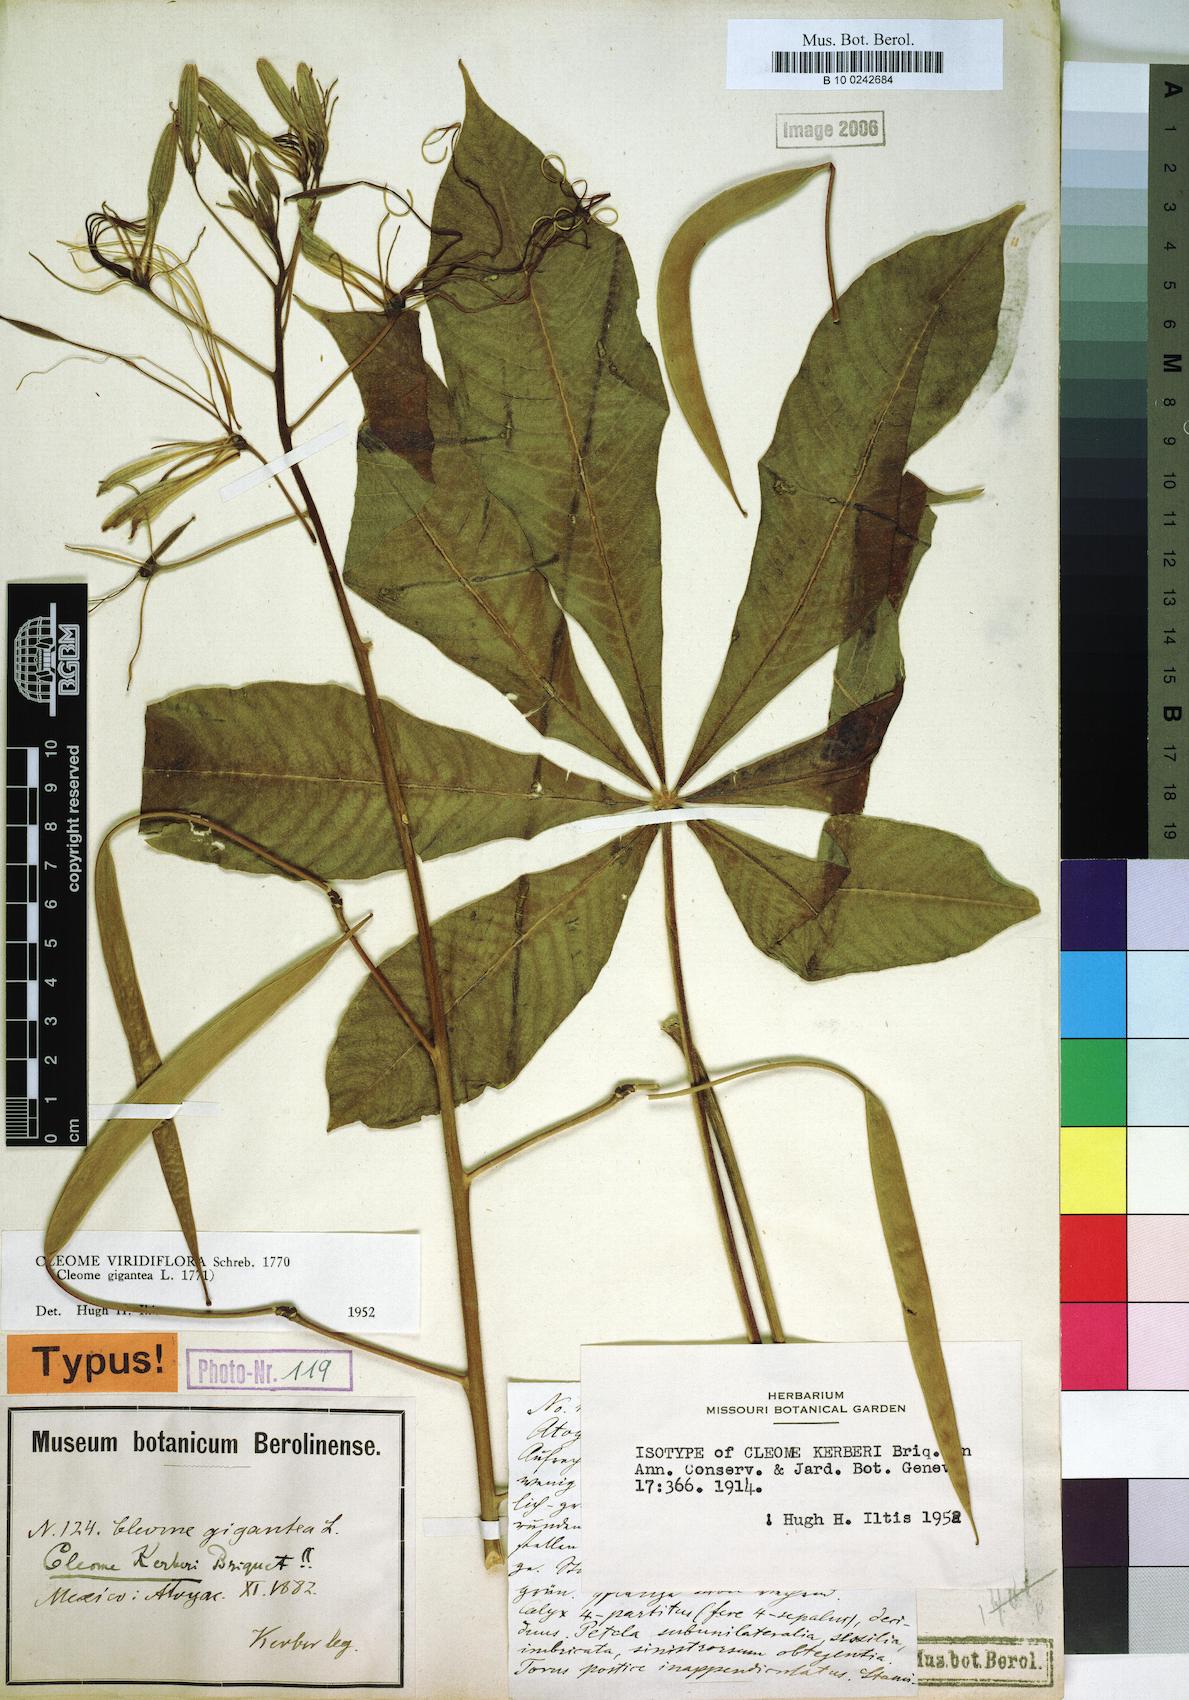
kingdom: Plantae
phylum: Tracheophyta
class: Magnoliopsida
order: Brassicales
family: Cleomaceae
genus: Melidiscus
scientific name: Melidiscus gigantea
